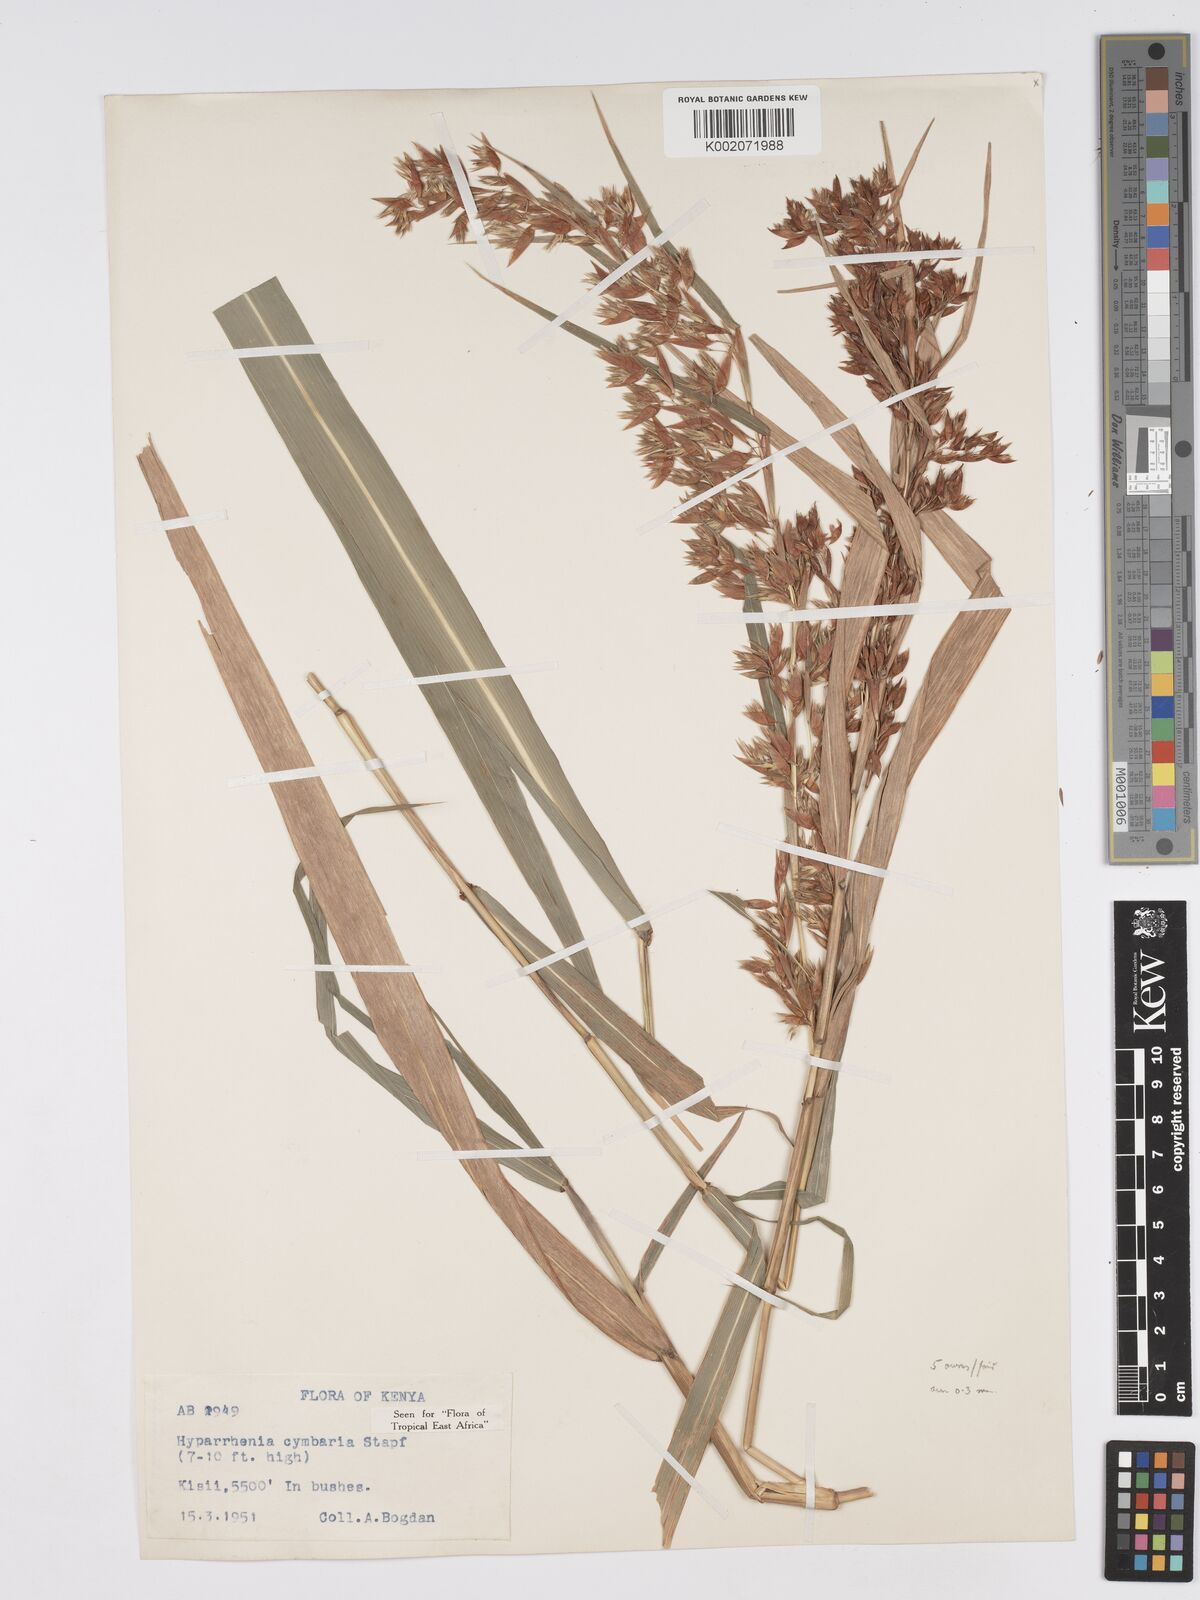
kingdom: Plantae
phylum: Tracheophyta
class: Liliopsida
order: Poales
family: Poaceae
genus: Hyparrhenia
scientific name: Hyparrhenia cymbaria
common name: Boat thatching grass
